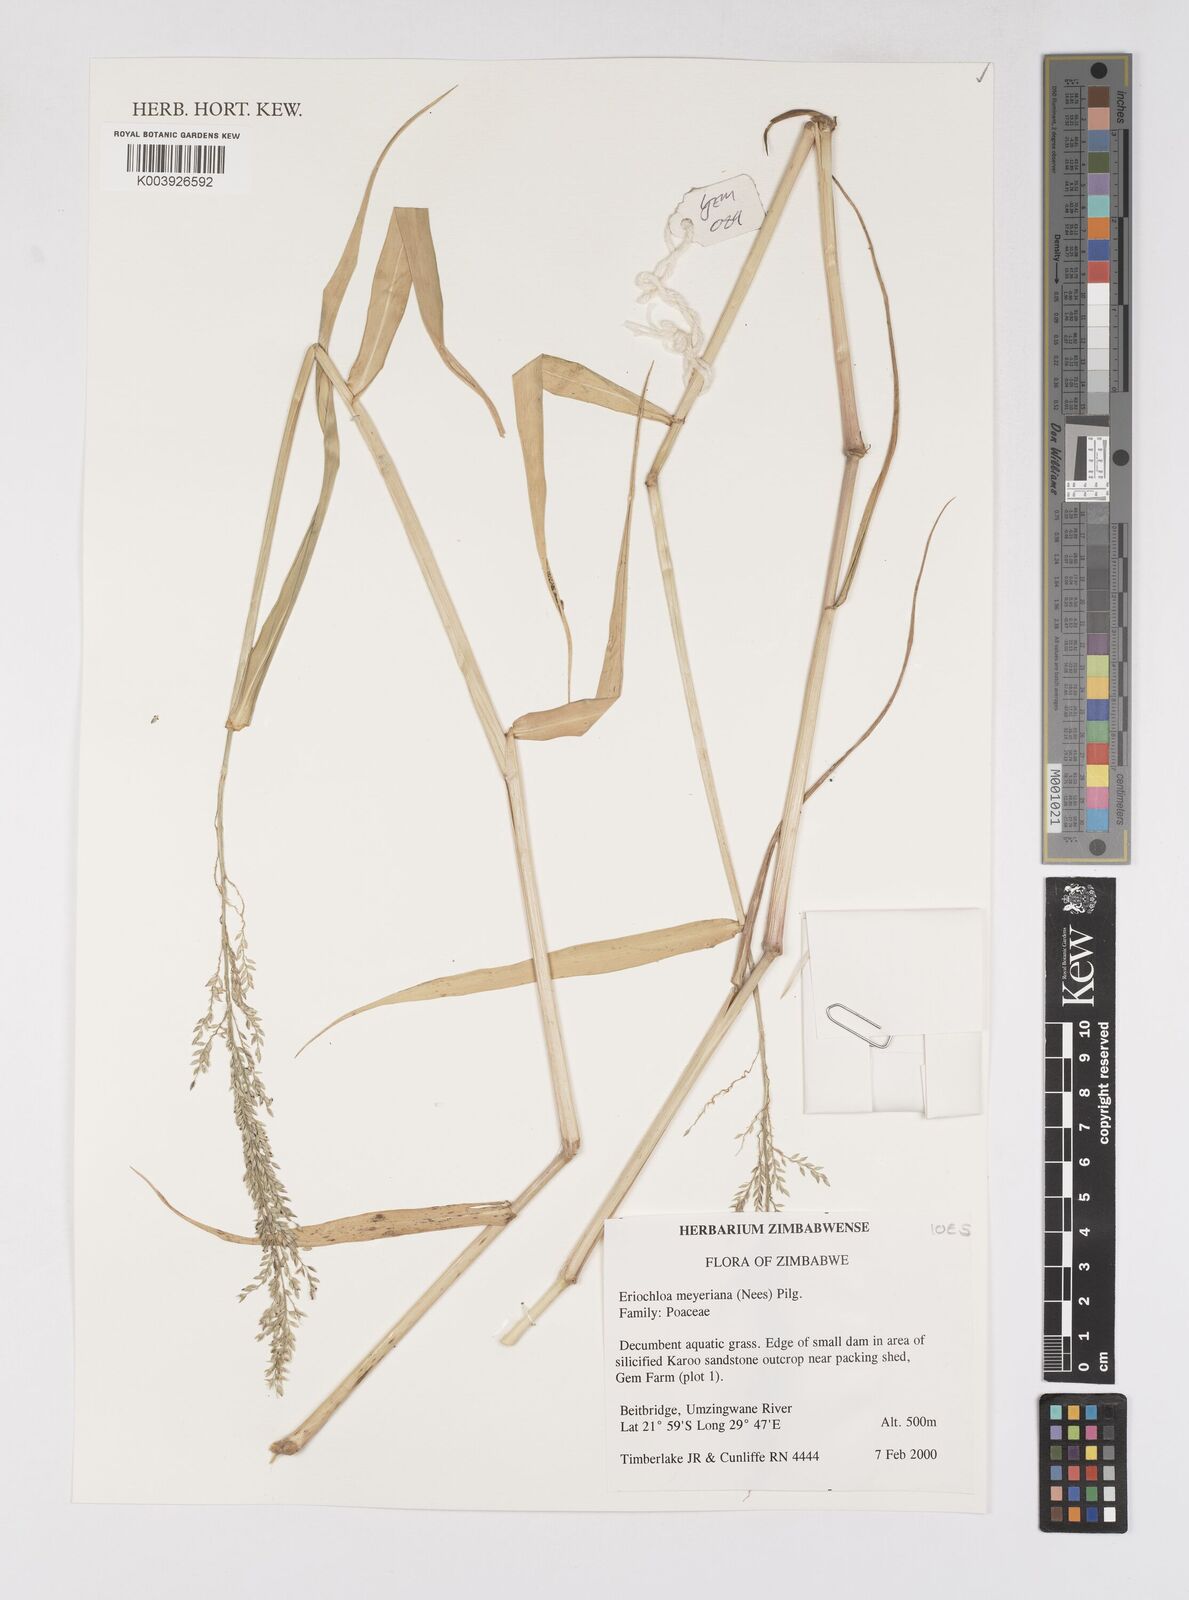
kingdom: Plantae
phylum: Tracheophyta
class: Liliopsida
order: Poales
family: Poaceae
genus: Eriochloa
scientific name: Eriochloa meyeriana
